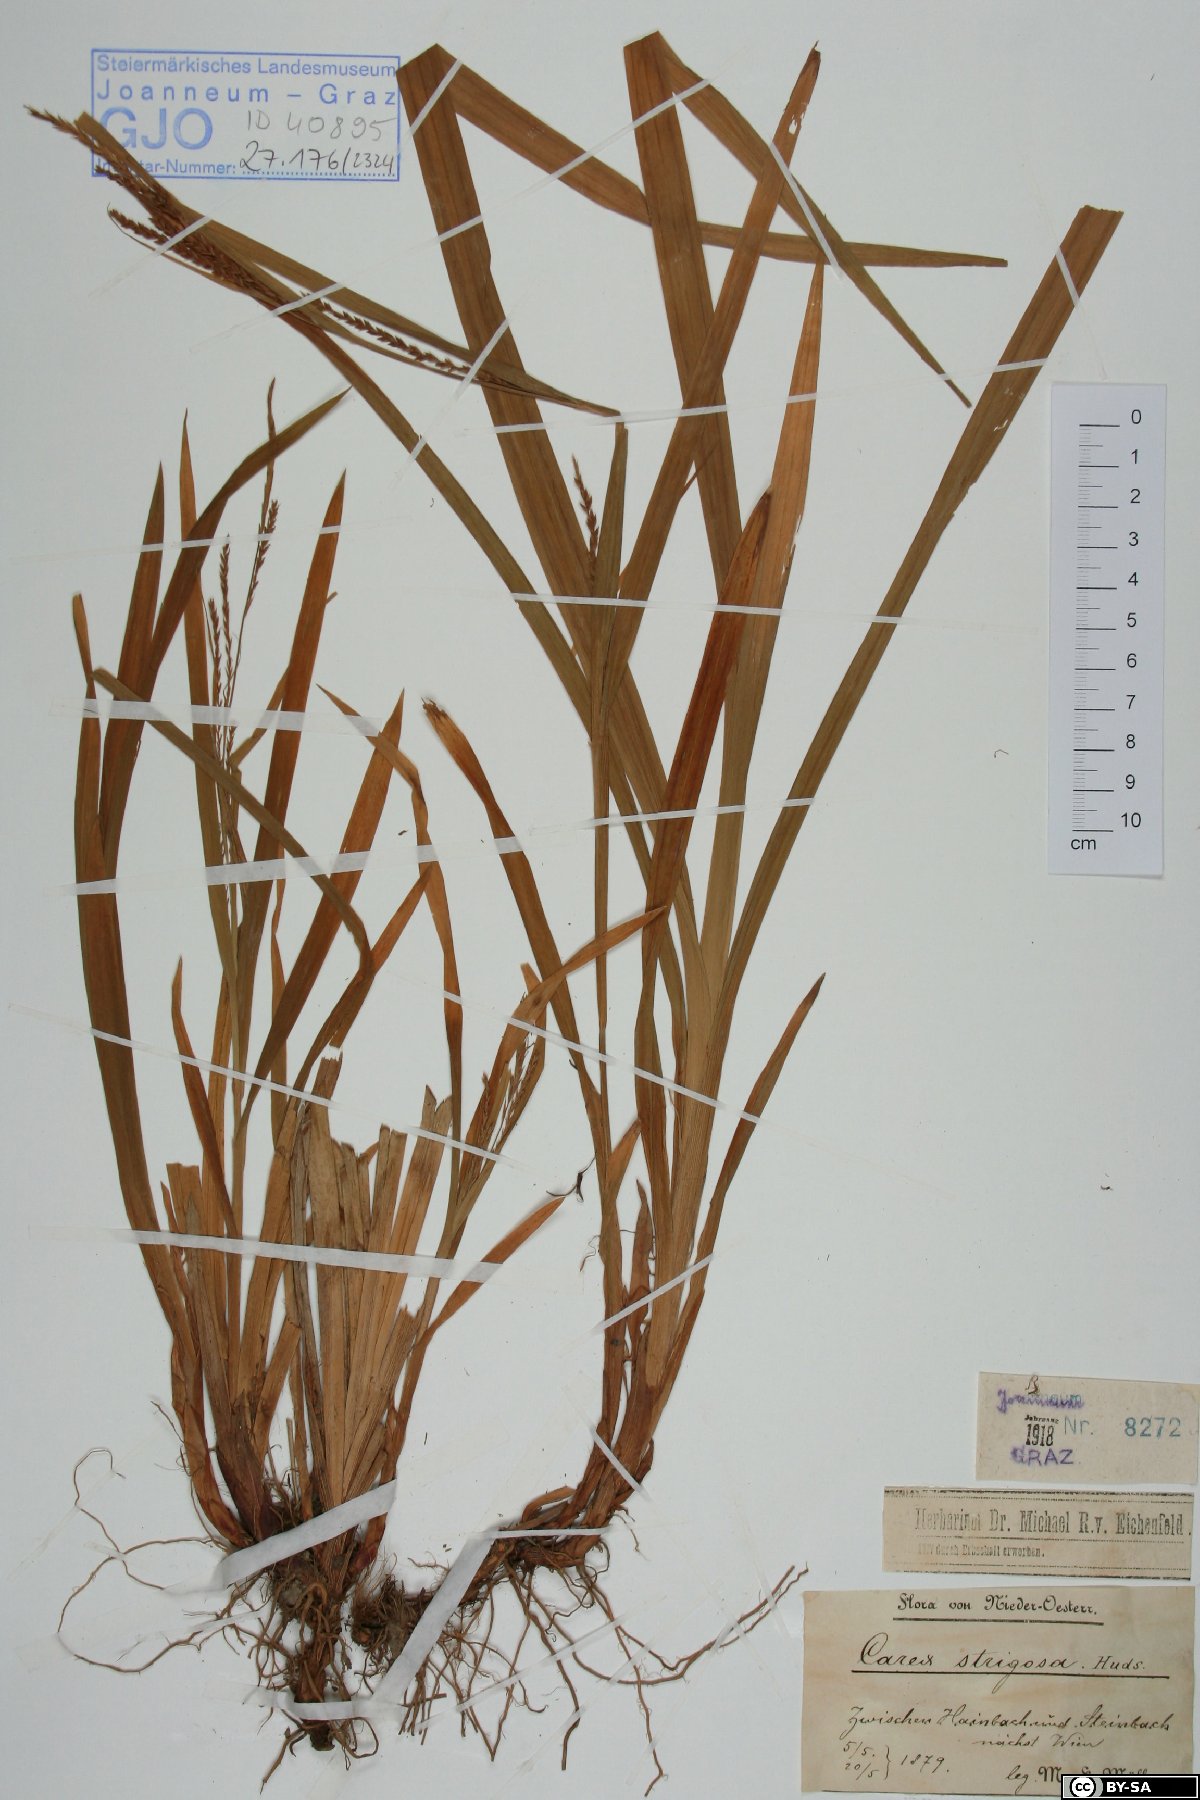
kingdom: Plantae
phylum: Tracheophyta
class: Liliopsida
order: Poales
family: Cyperaceae
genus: Carex
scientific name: Carex strigosa
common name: Thin-spiked wood-sedge
